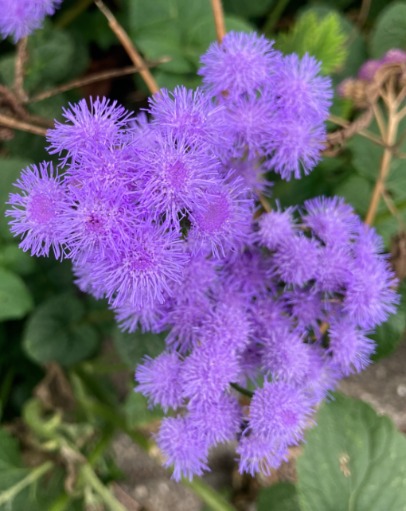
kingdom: Plantae
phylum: Tracheophyta
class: Magnoliopsida
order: Ranunculales
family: Ranunculaceae
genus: Thalictrum
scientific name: Thalictrum delavayi
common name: Viol-frøstjerne
